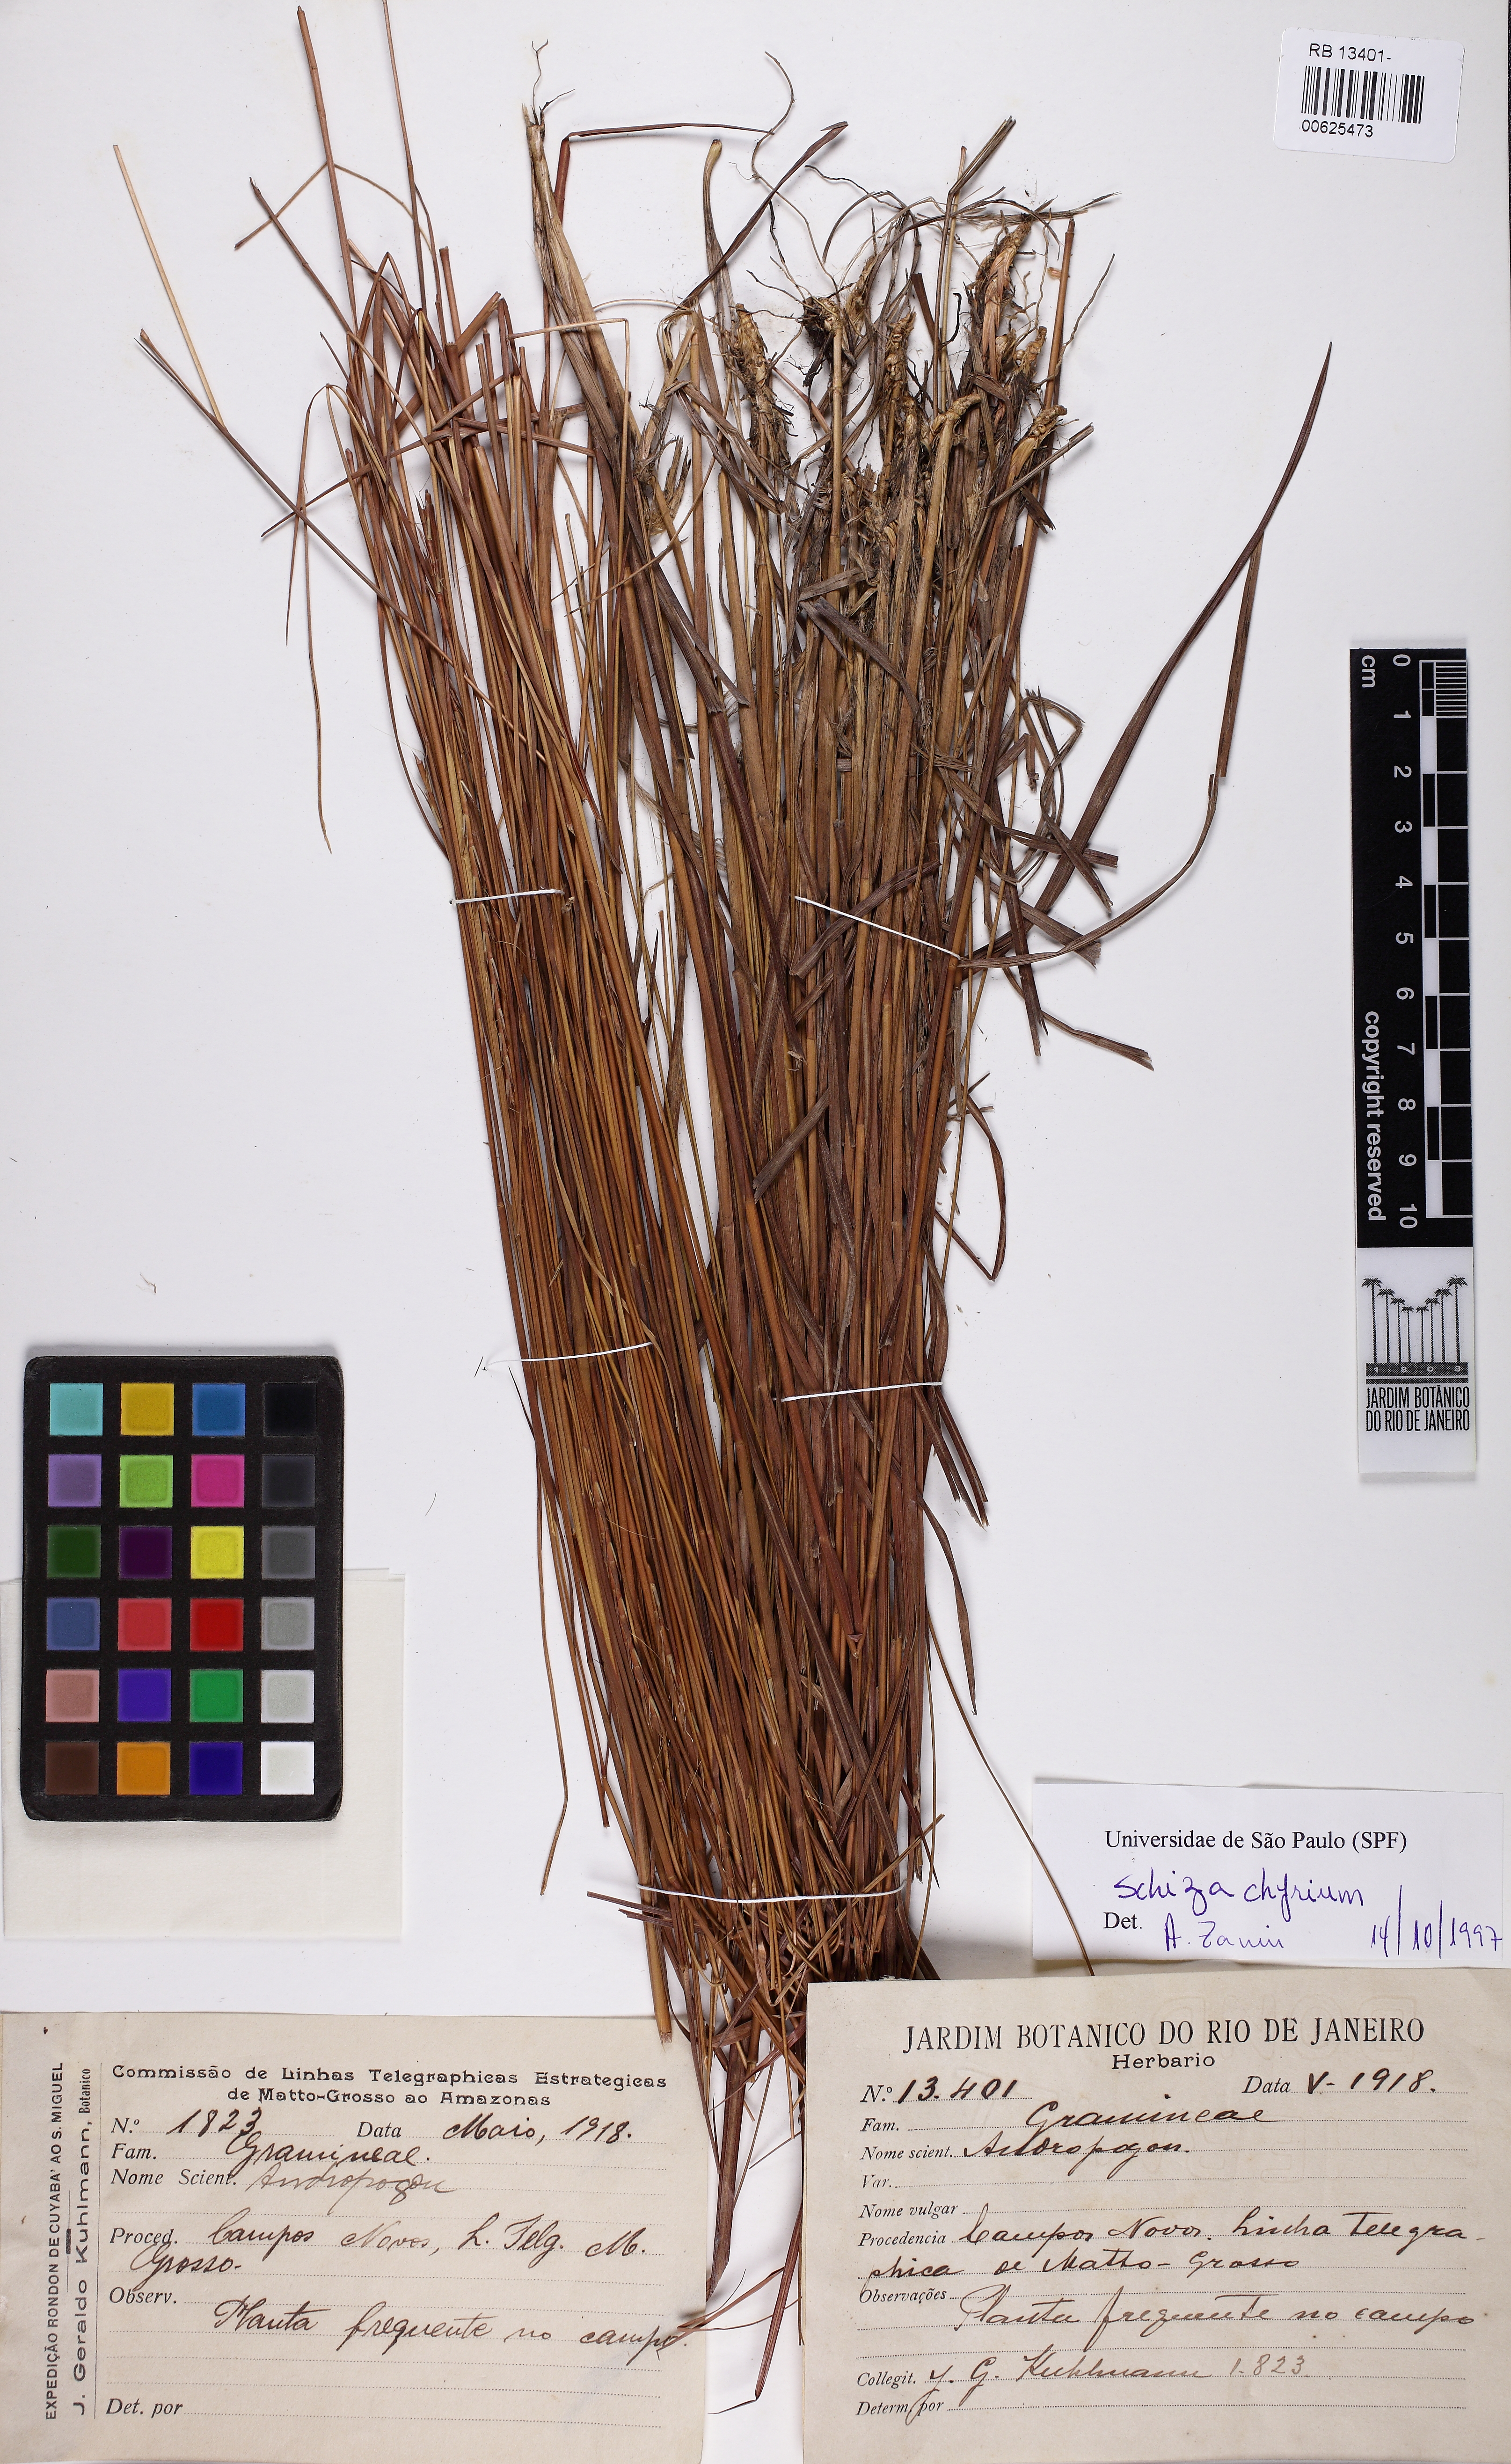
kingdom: Plantae
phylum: Tracheophyta
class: Liliopsida
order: Poales
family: Poaceae
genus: Schizachyrium
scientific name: Schizachyrium
